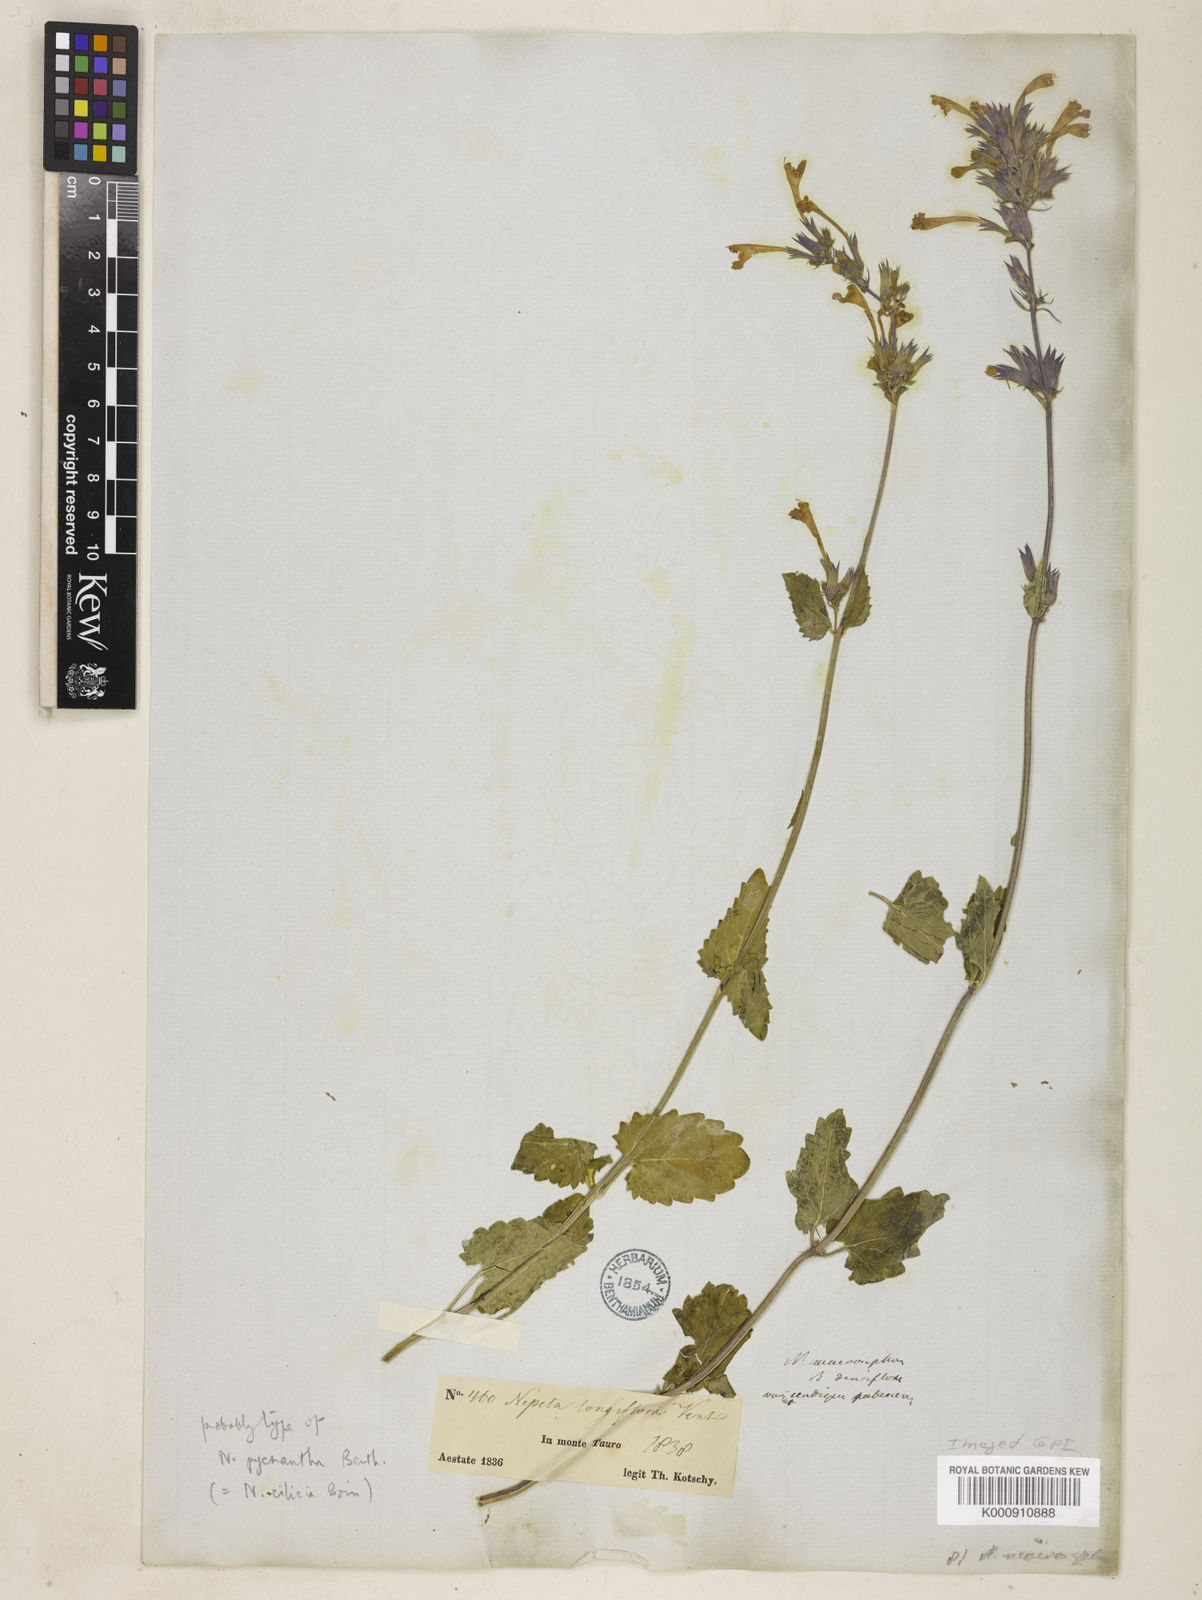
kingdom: Plantae
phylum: Tracheophyta
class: Magnoliopsida
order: Lamiales
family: Lamiaceae
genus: Nepeta
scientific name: Nepeta
